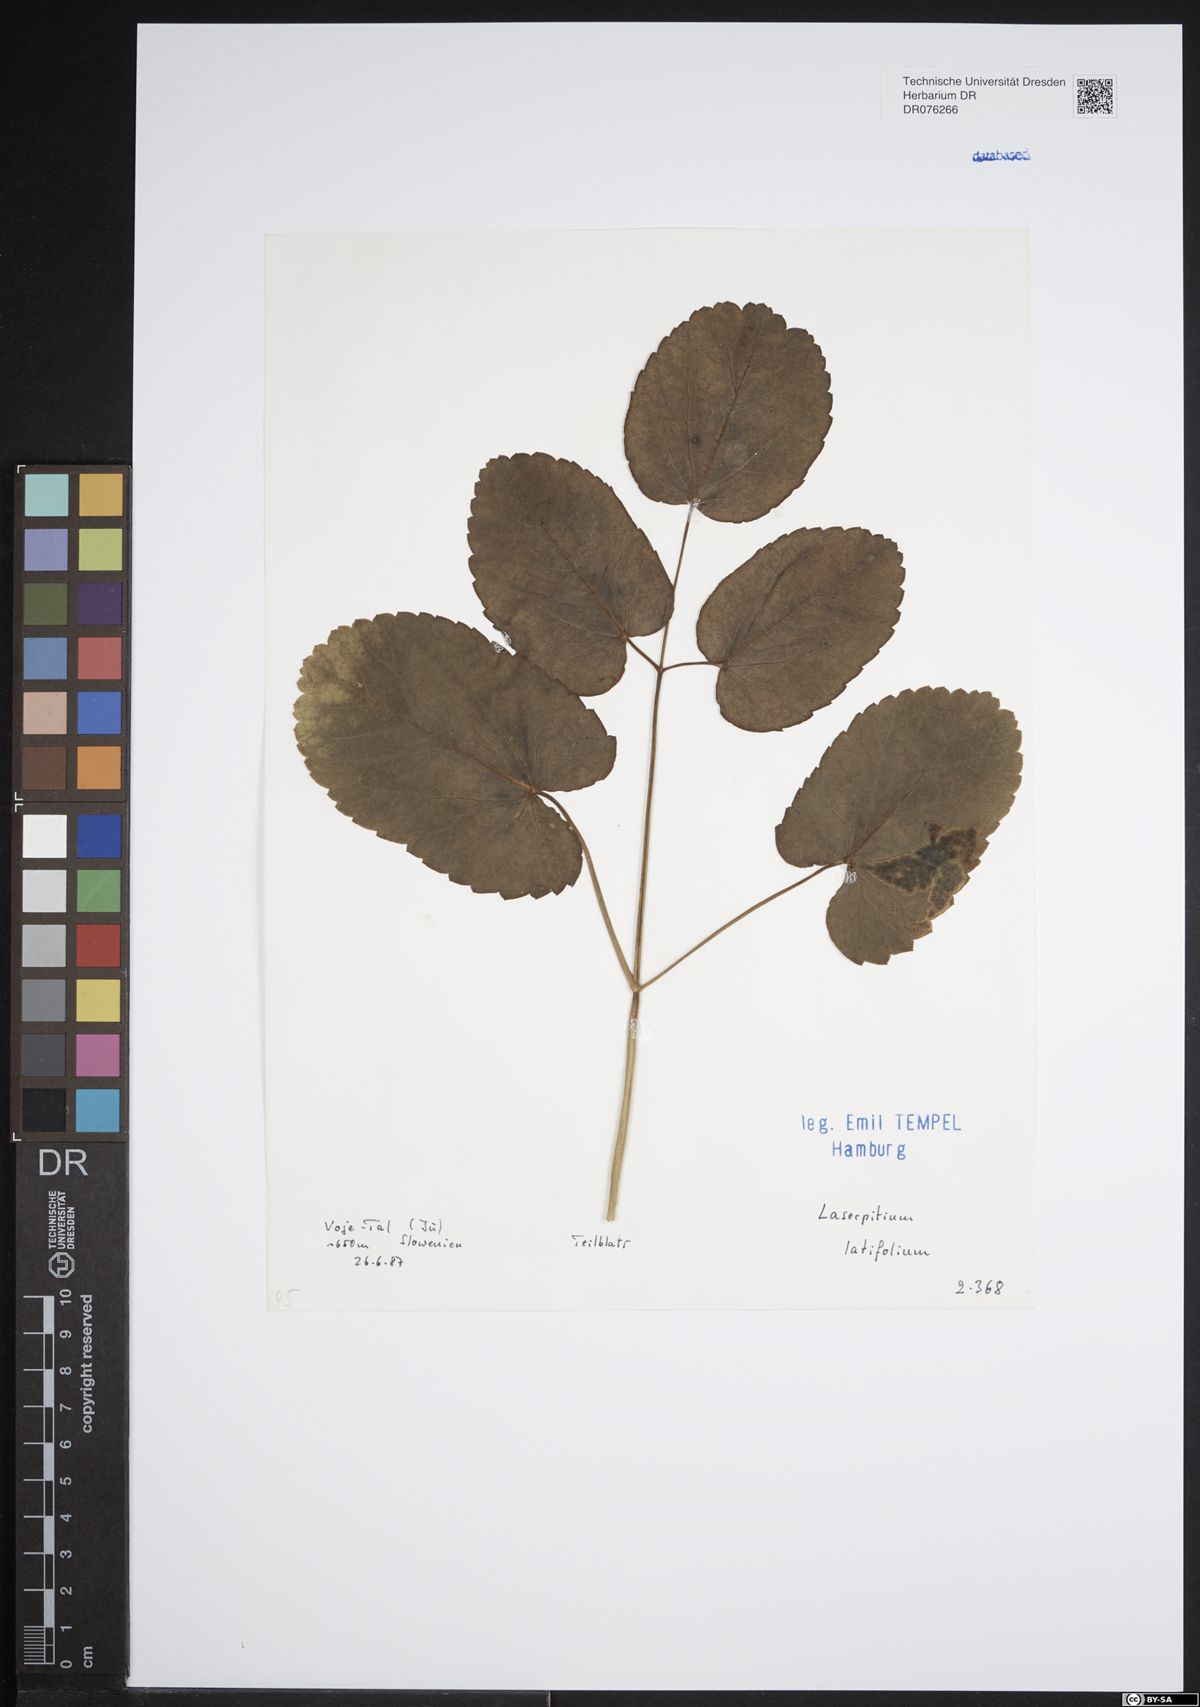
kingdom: Plantae
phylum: Tracheophyta
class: Magnoliopsida
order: Apiales
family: Apiaceae
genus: Laserpitium
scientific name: Laserpitium latifolium
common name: Broadleaf sermountain
